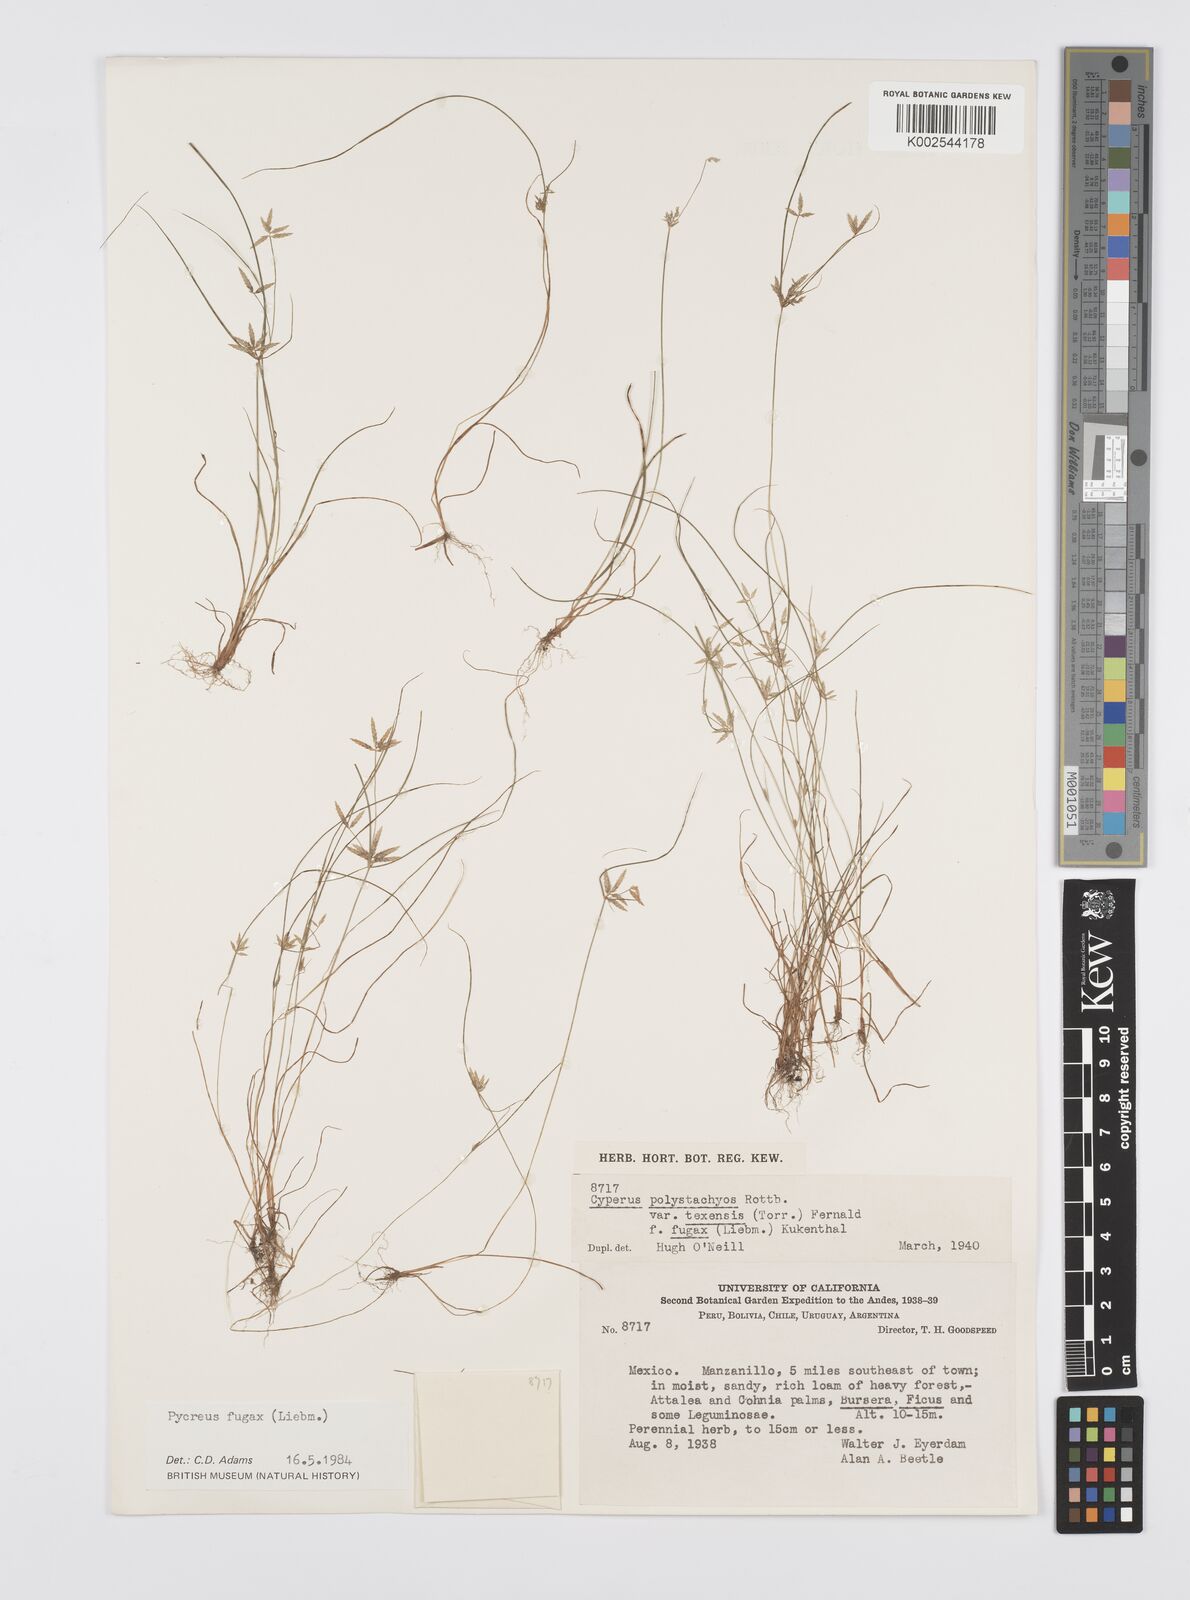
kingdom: Plantae
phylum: Tracheophyta
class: Liliopsida
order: Poales
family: Cyperaceae
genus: Cyperus
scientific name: Cyperus polystachyos
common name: Bunchy flat sedge
